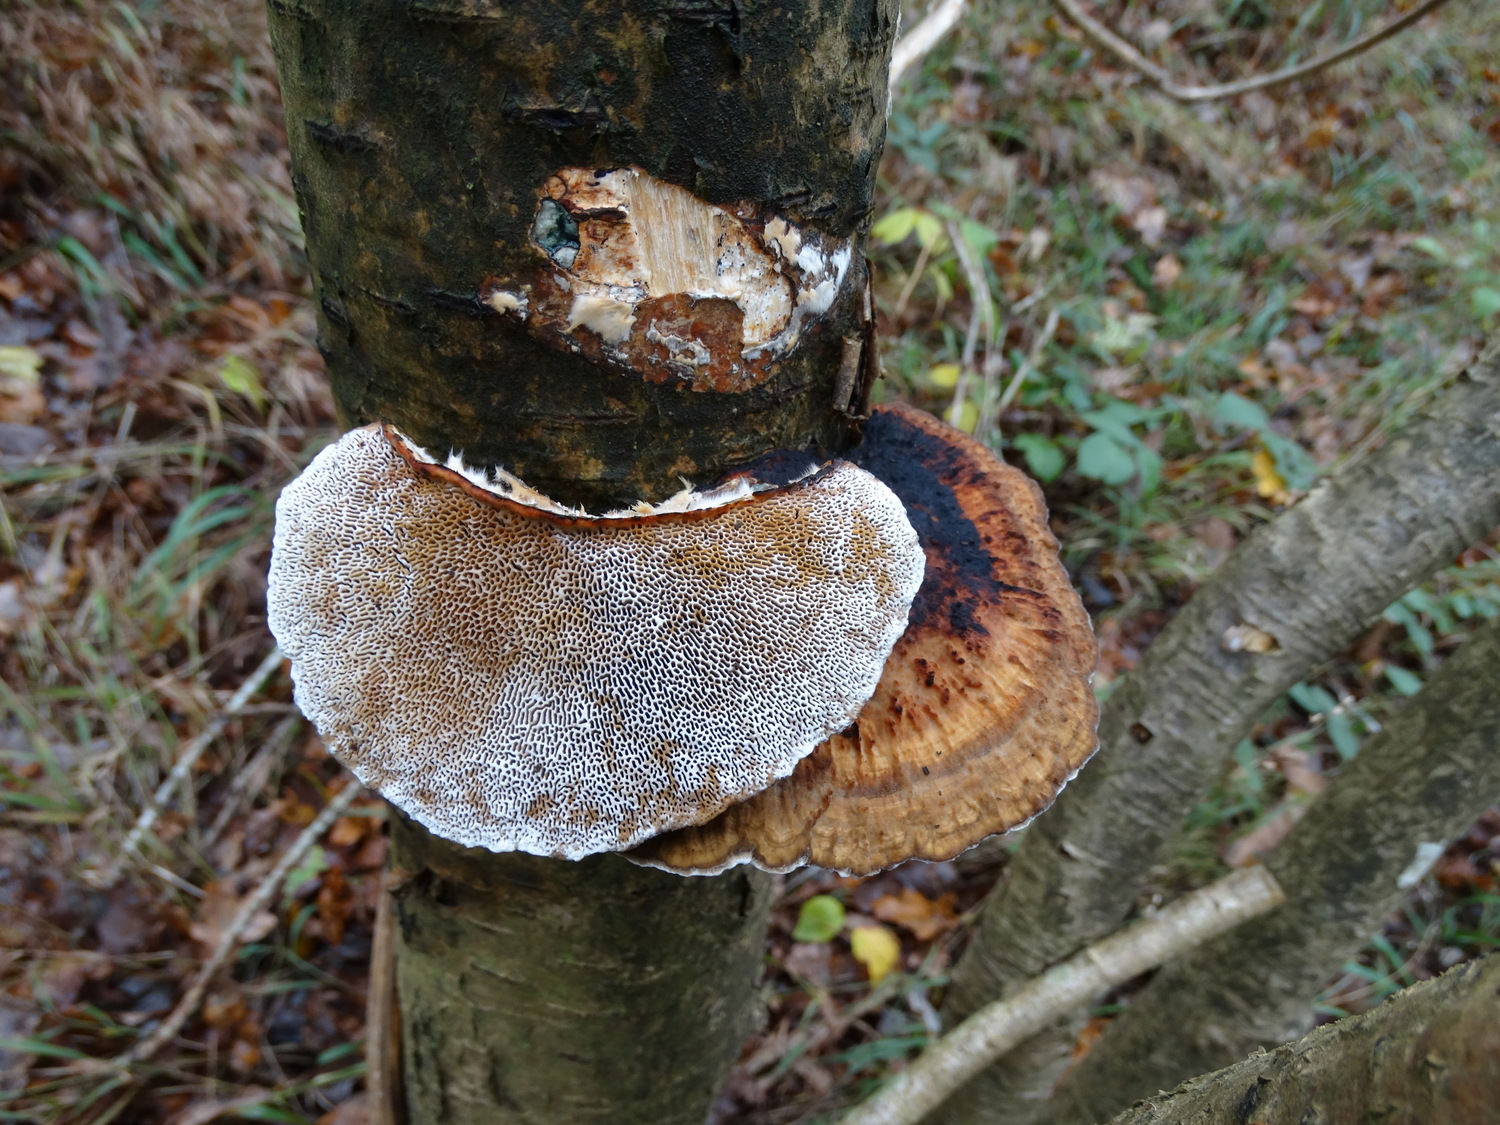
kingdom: Fungi
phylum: Basidiomycota
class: Agaricomycetes
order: Polyporales
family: Polyporaceae
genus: Daedaleopsis
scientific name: Daedaleopsis confragosa
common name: rødmende læderporesvamp
